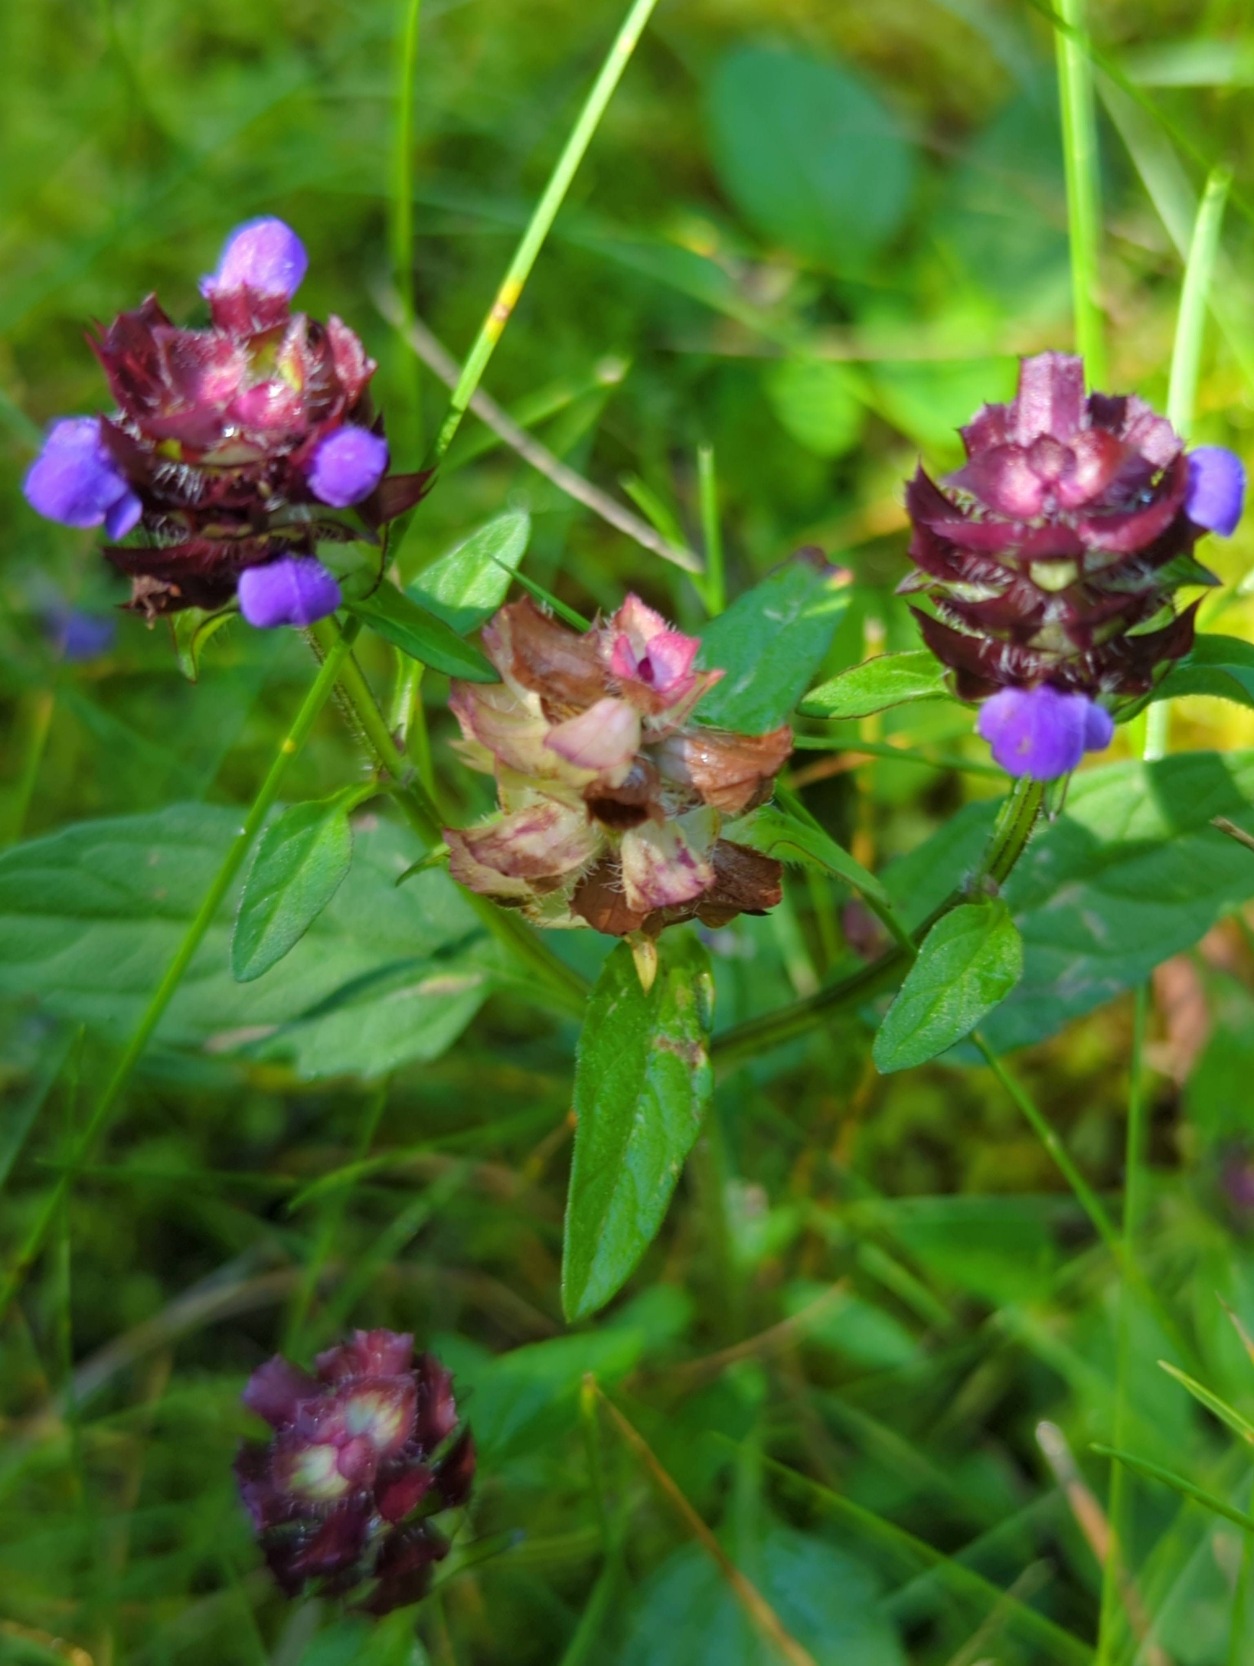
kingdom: Plantae
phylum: Tracheophyta
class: Magnoliopsida
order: Lamiales
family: Lamiaceae
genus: Prunella
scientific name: Prunella vulgaris
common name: Almindelig brunelle
